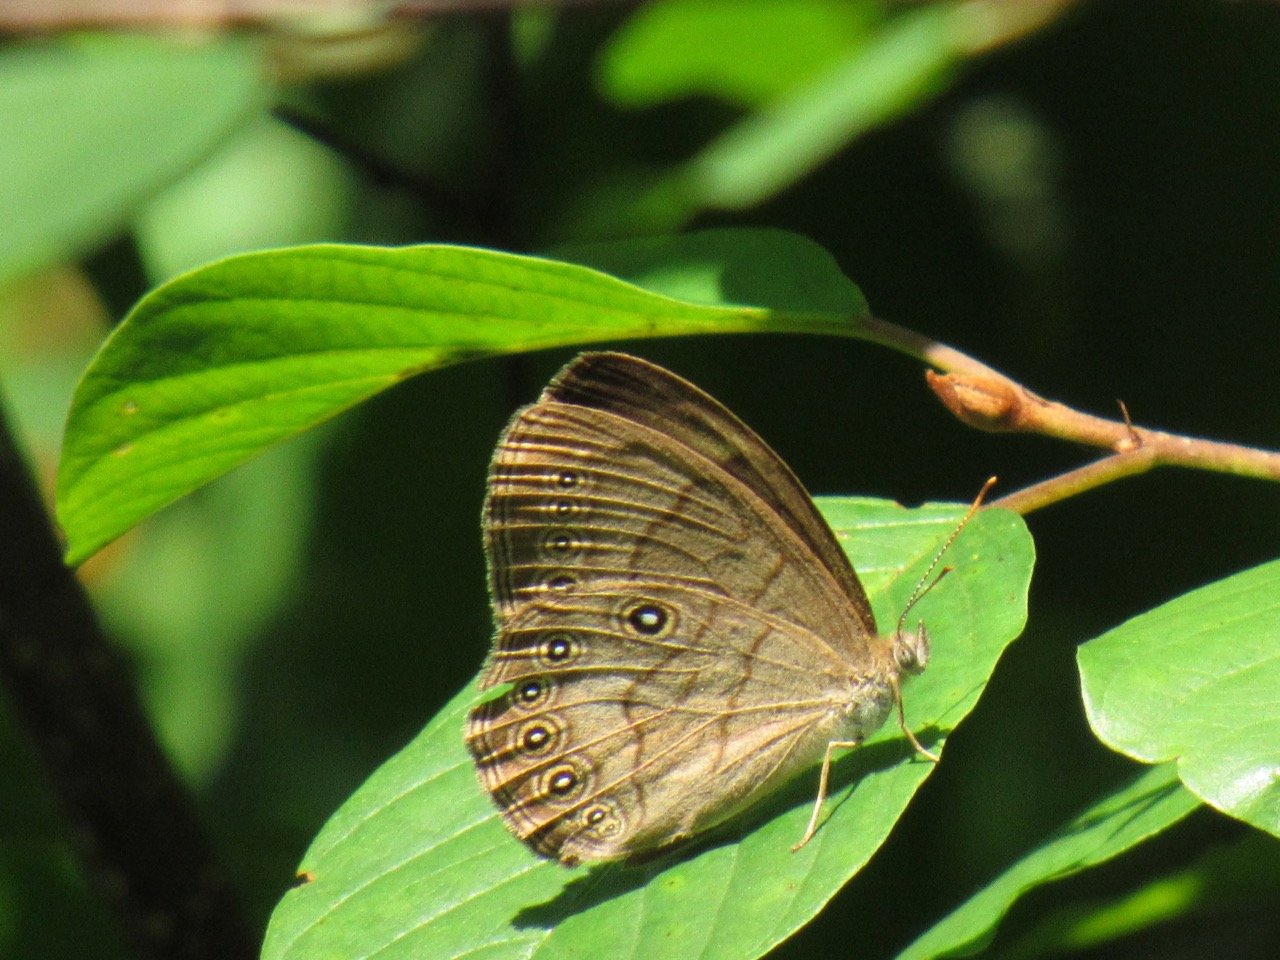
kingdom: Animalia
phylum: Arthropoda
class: Insecta
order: Lepidoptera
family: Nymphalidae
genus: Lethe
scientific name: Lethe eurydice
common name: Appalachian Eyed Brown
